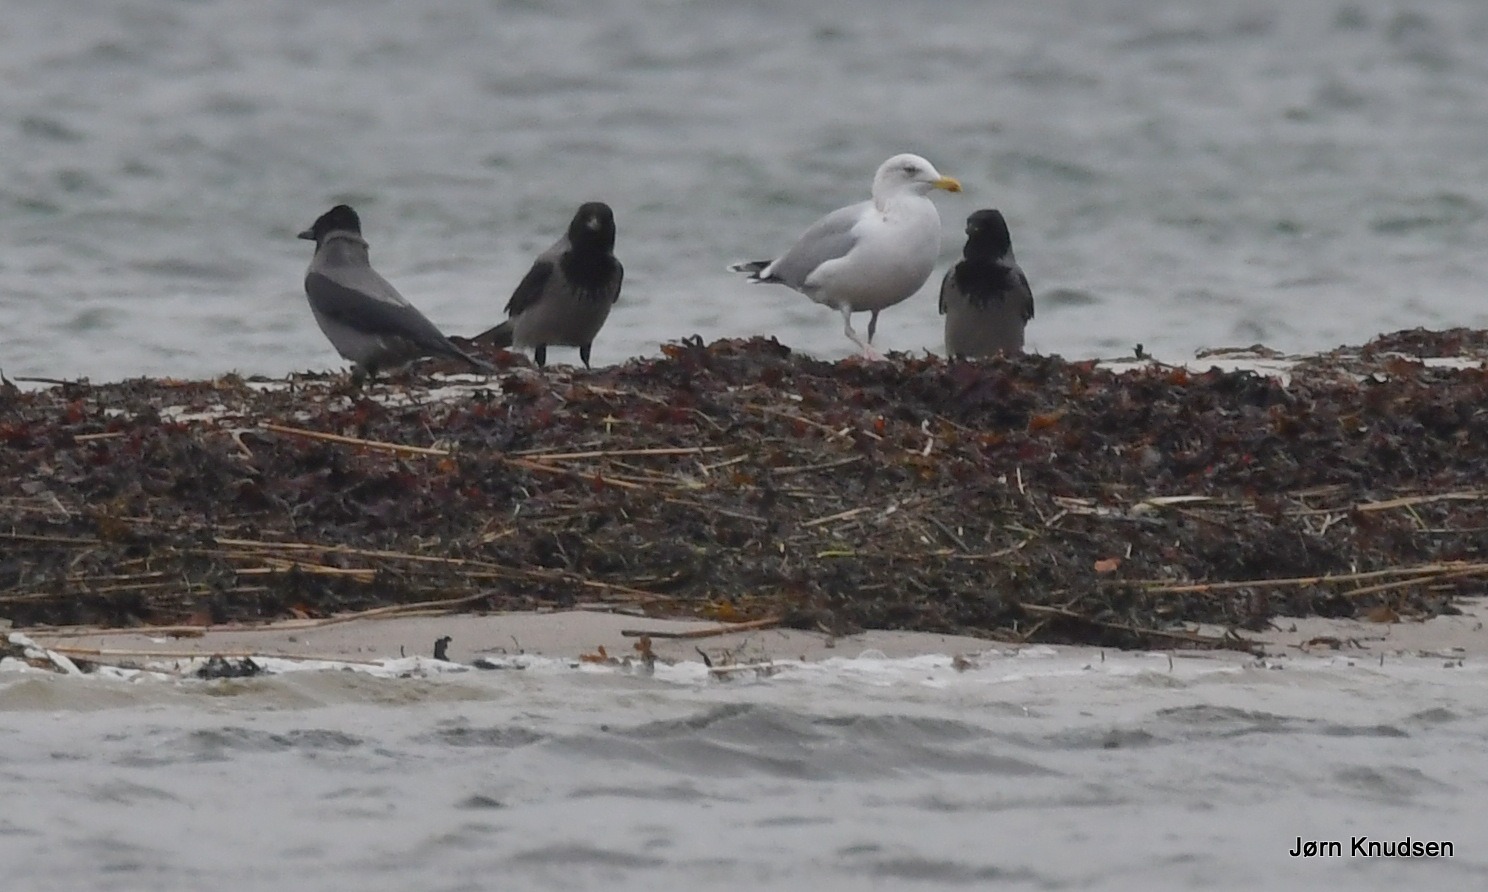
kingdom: Animalia
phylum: Chordata
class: Aves
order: Passeriformes
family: Corvidae
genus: Corvus
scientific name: Corvus cornix
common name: Gråkrage
